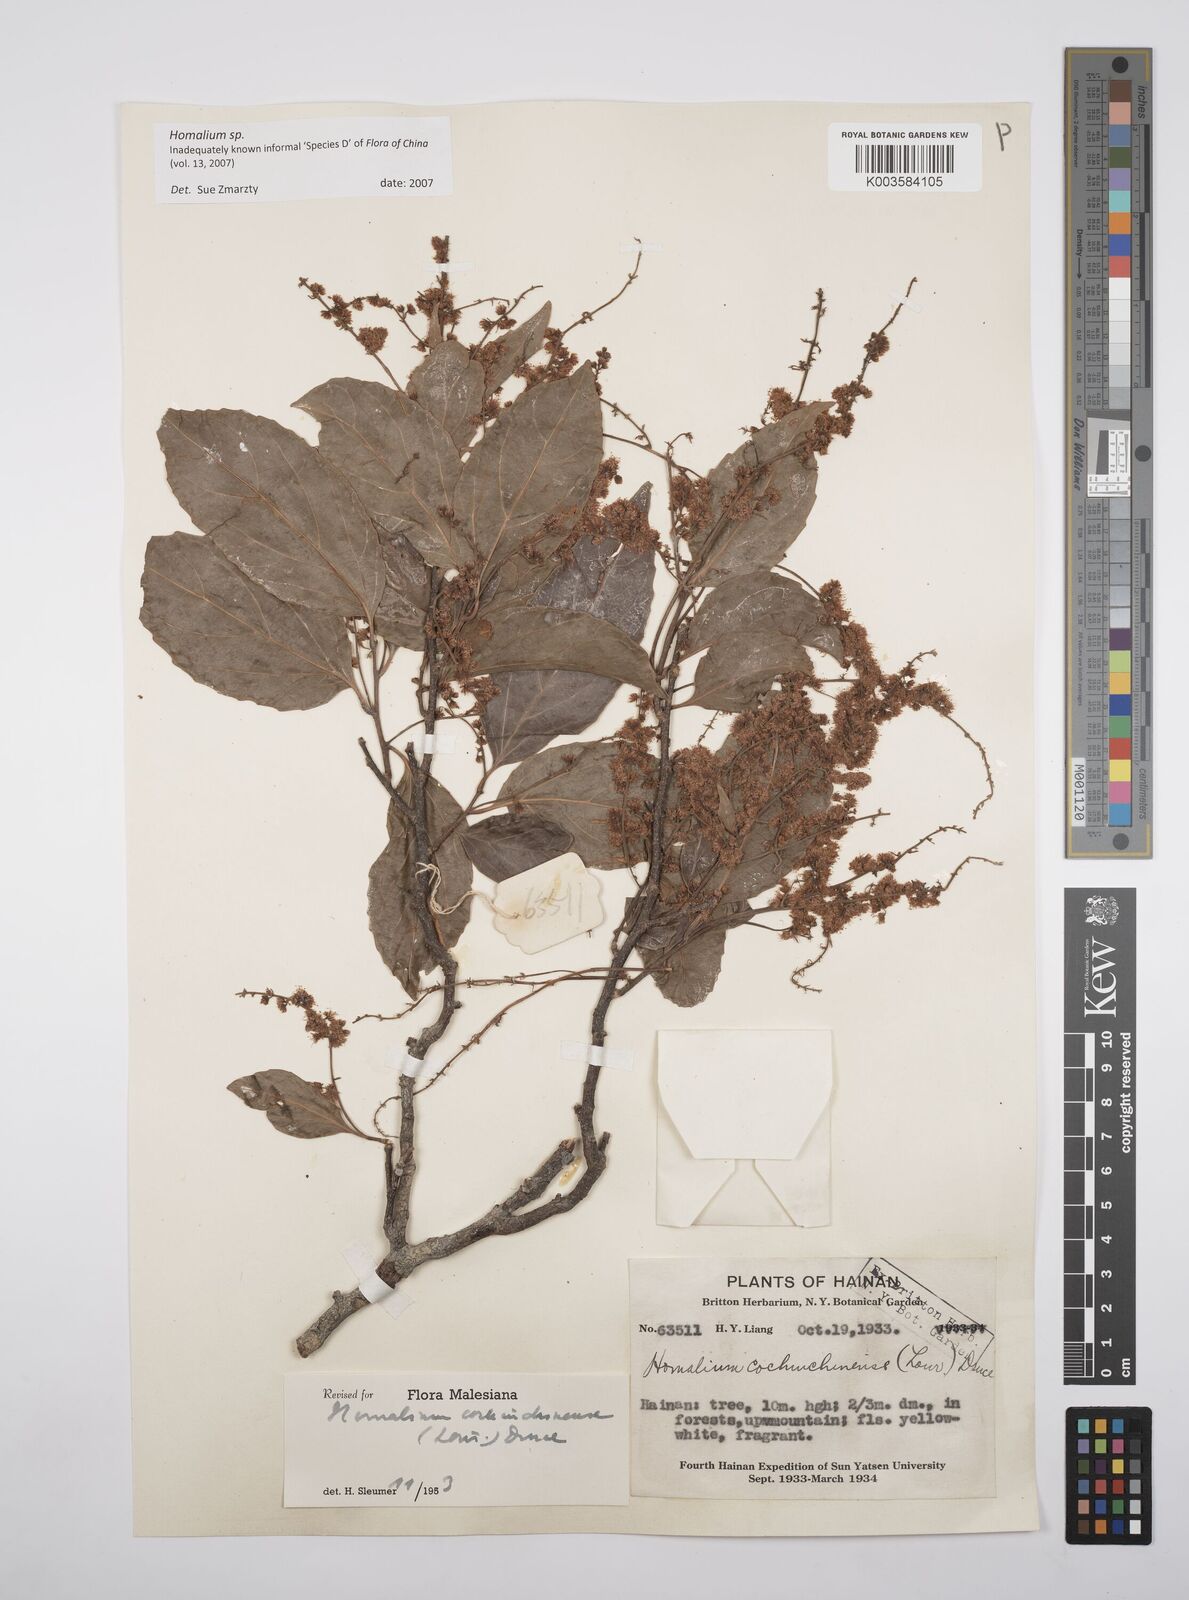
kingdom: Plantae
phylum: Tracheophyta
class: Magnoliopsida
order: Malpighiales
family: Salicaceae
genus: Homalium
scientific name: Homalium
